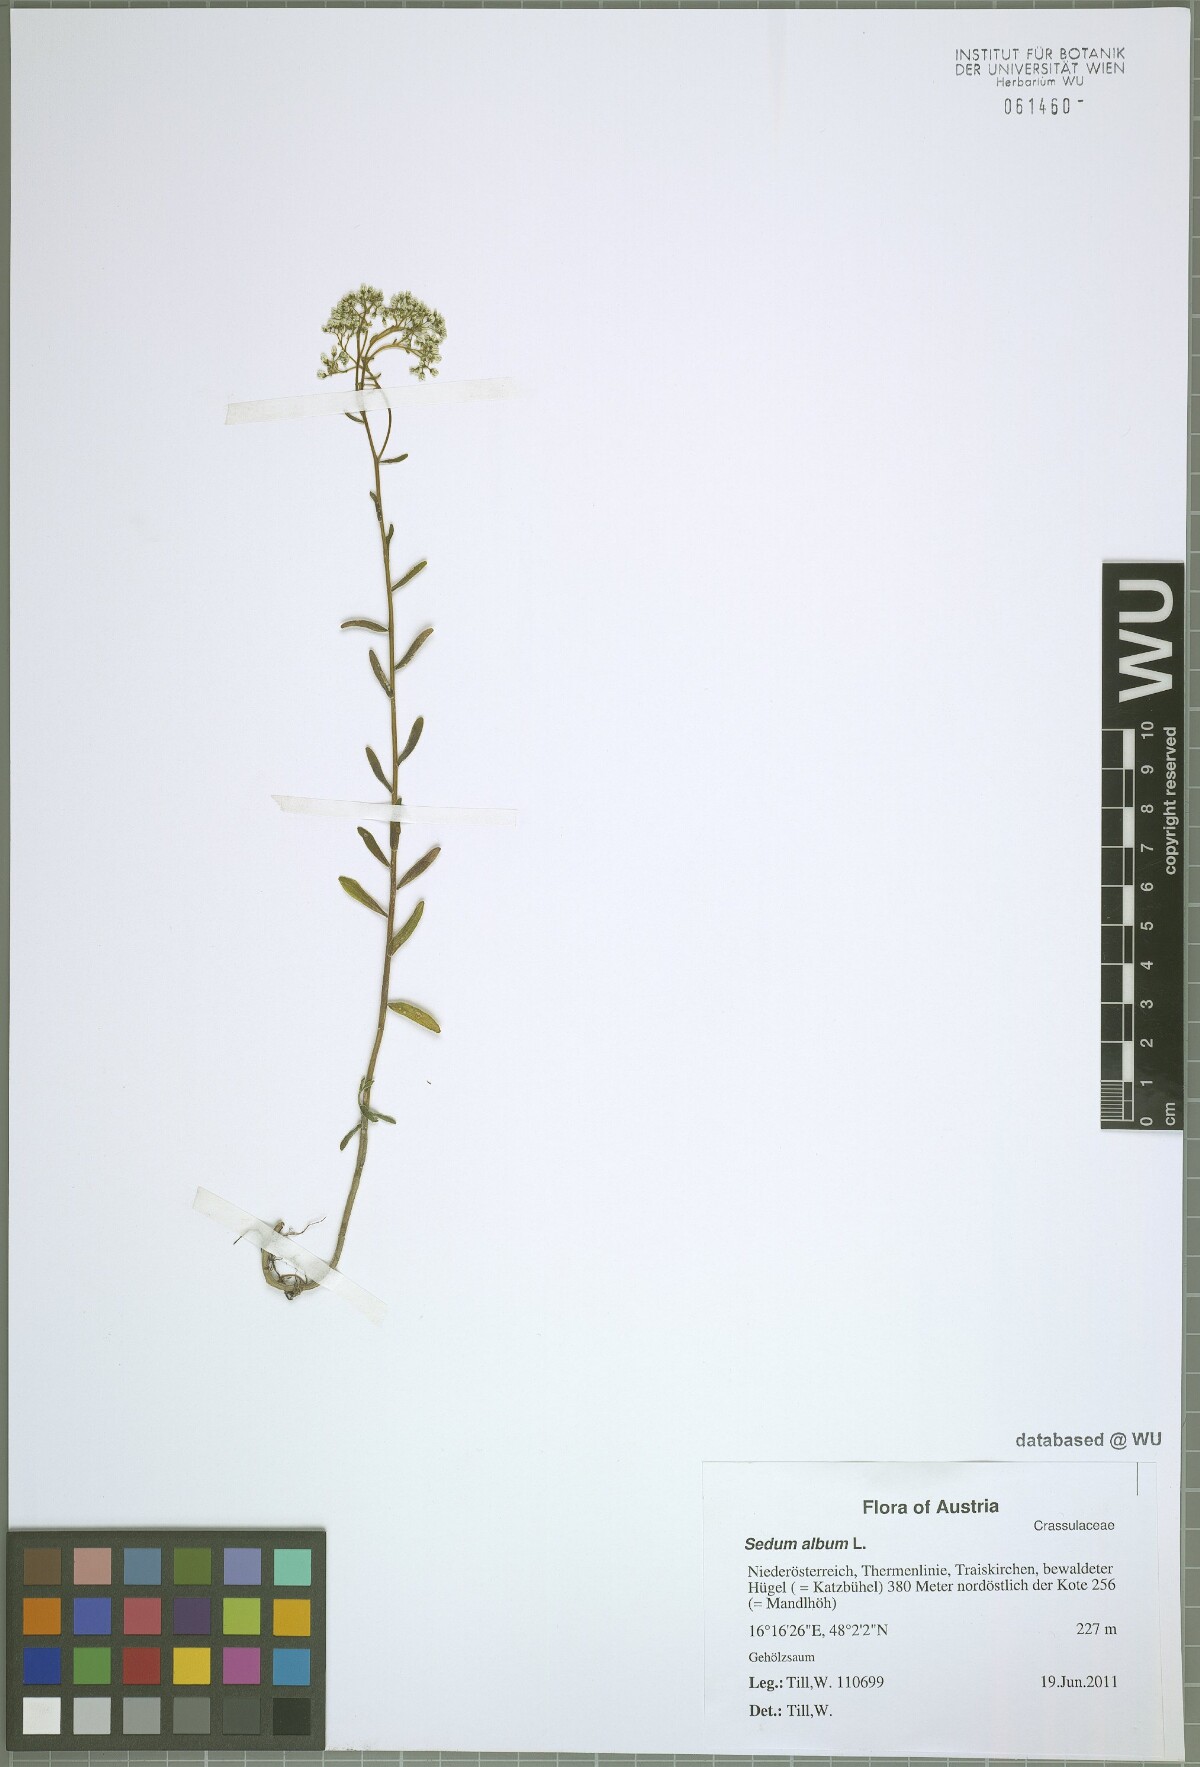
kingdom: Plantae
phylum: Tracheophyta
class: Magnoliopsida
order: Saxifragales
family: Crassulaceae
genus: Sedum
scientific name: Sedum album
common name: White stonecrop
